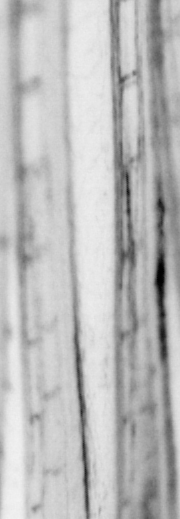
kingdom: Animalia
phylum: Chordata
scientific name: Chordata
